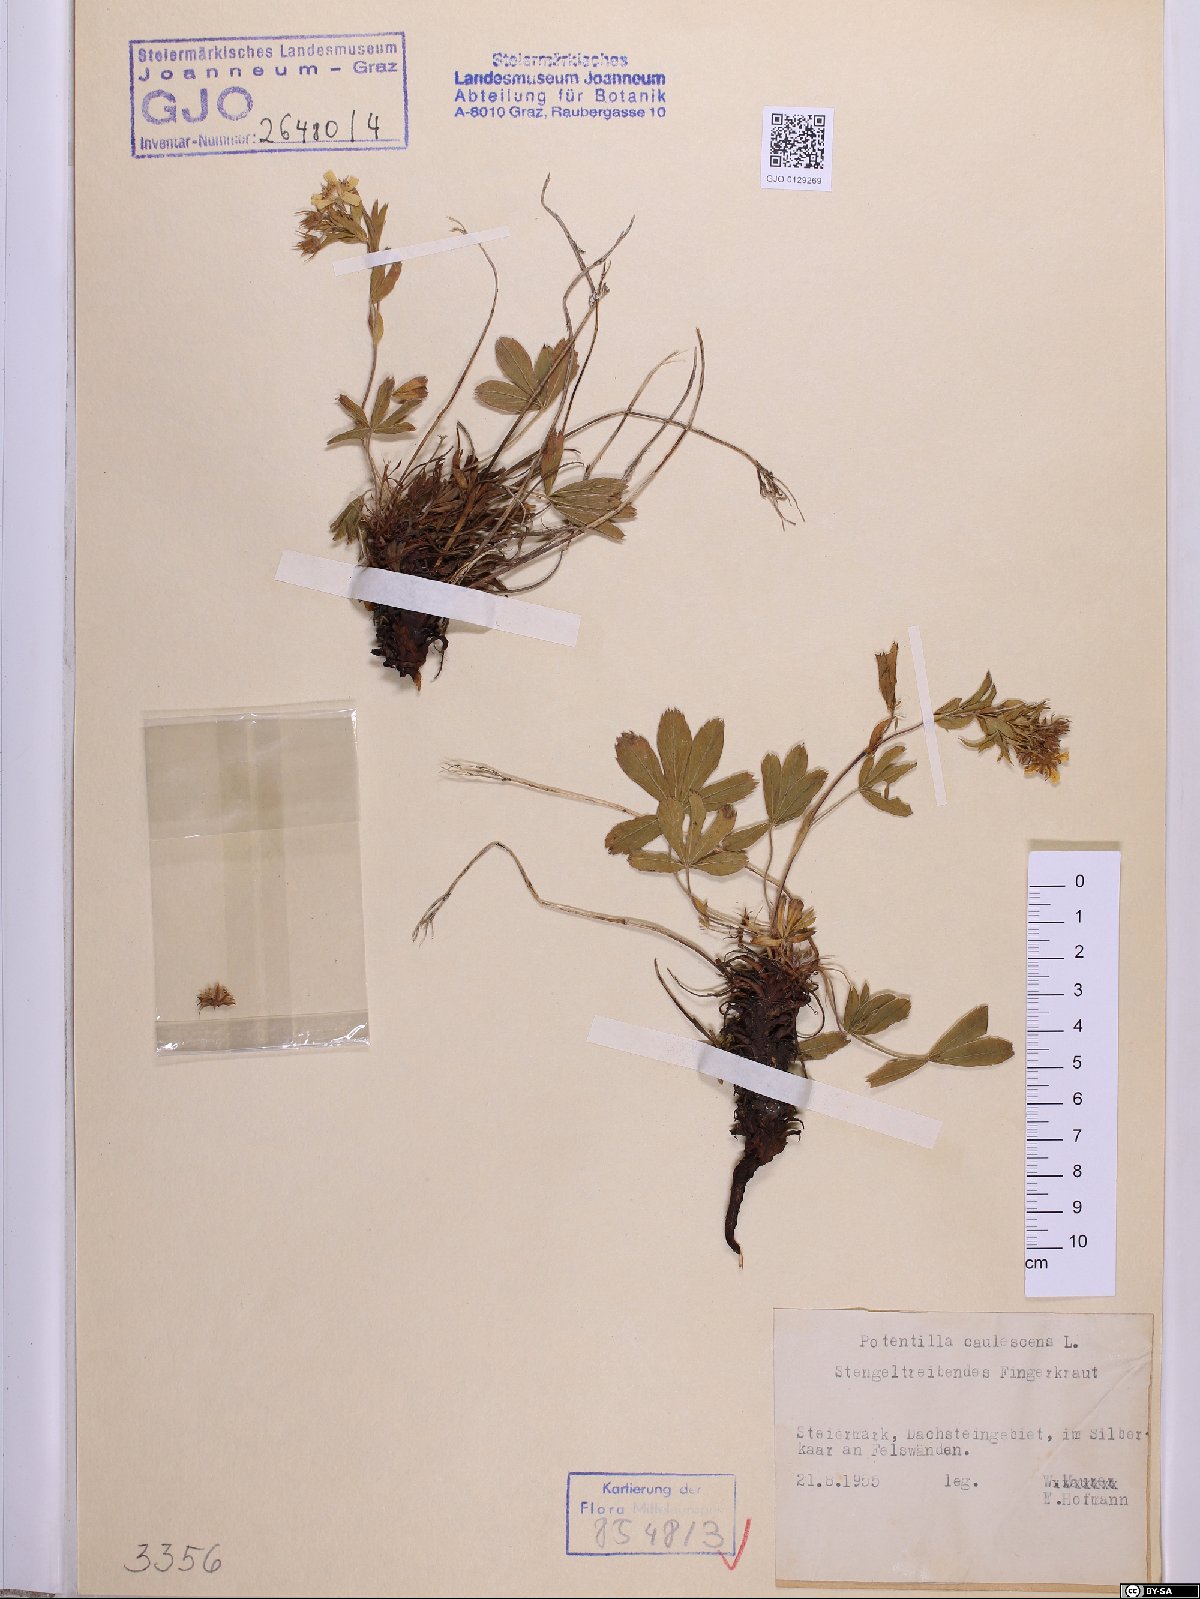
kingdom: Plantae
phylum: Tracheophyta
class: Magnoliopsida
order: Rosales
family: Rosaceae
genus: Potentilla
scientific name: Potentilla caulescens
